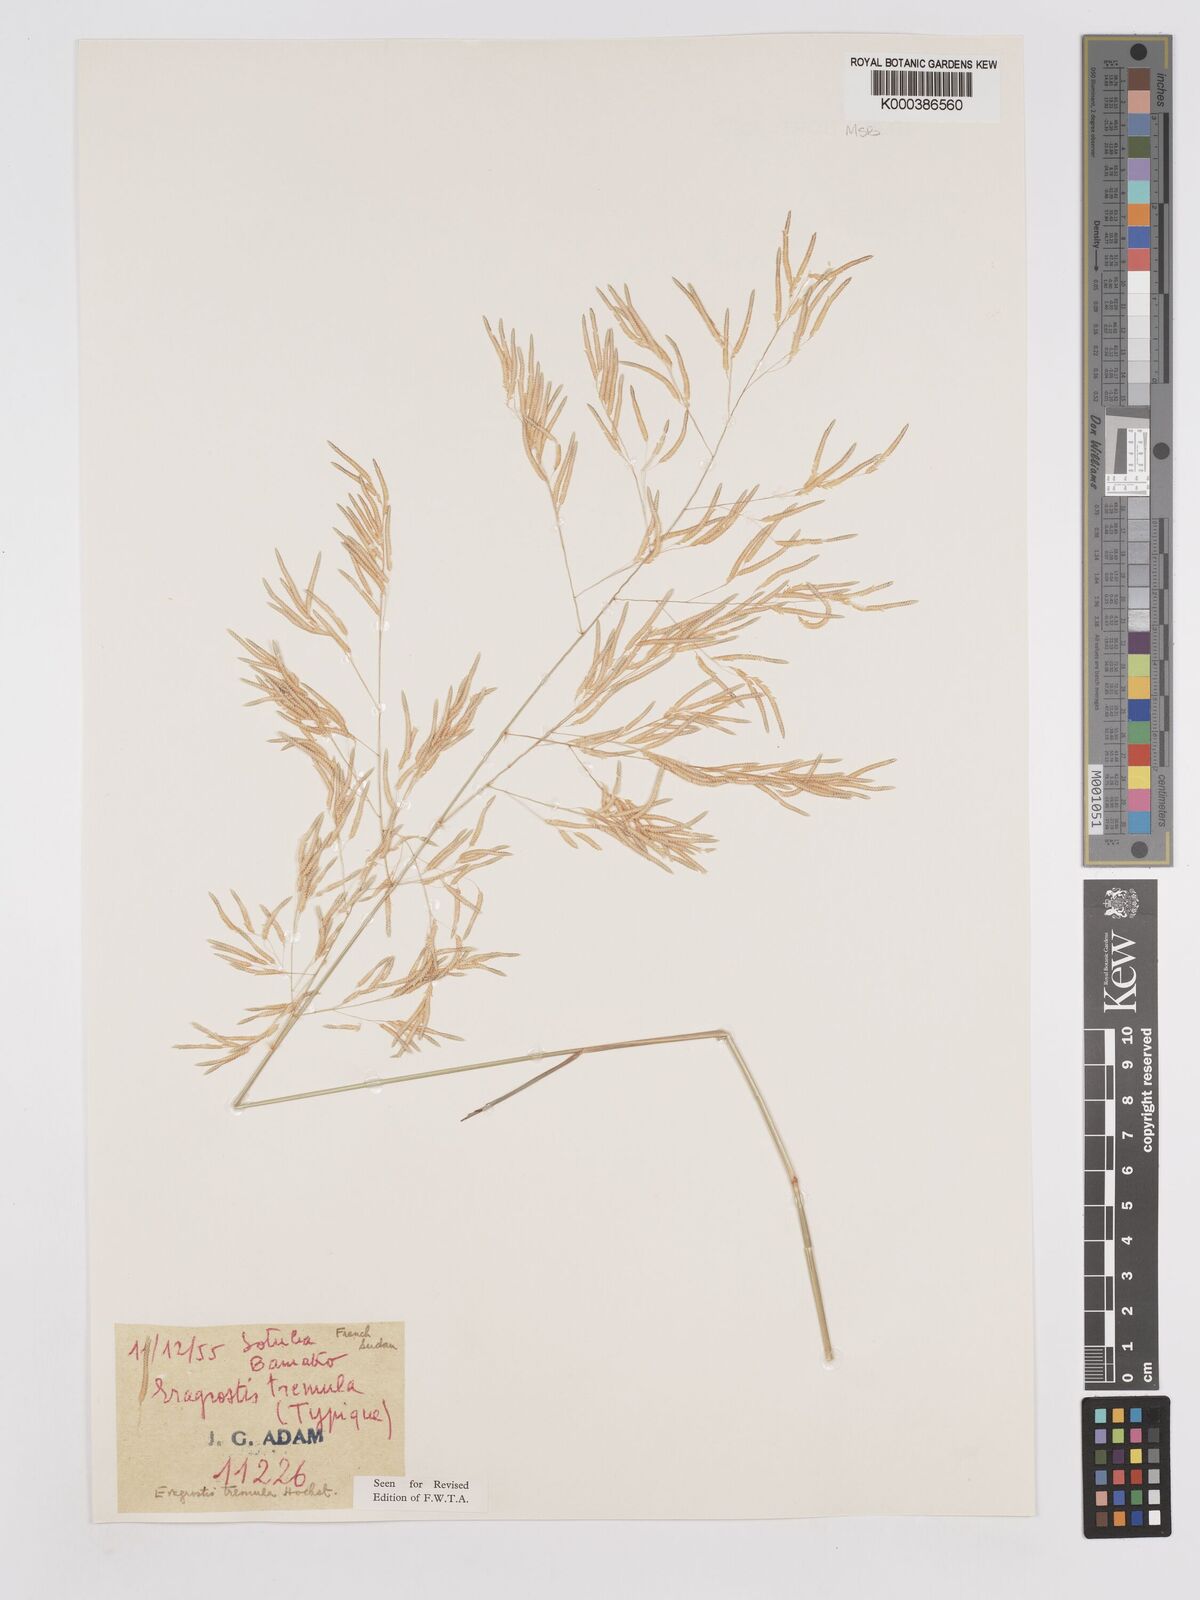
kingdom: Plantae
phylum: Tracheophyta
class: Liliopsida
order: Poales
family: Poaceae
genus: Eragrostis
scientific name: Eragrostis tremula
